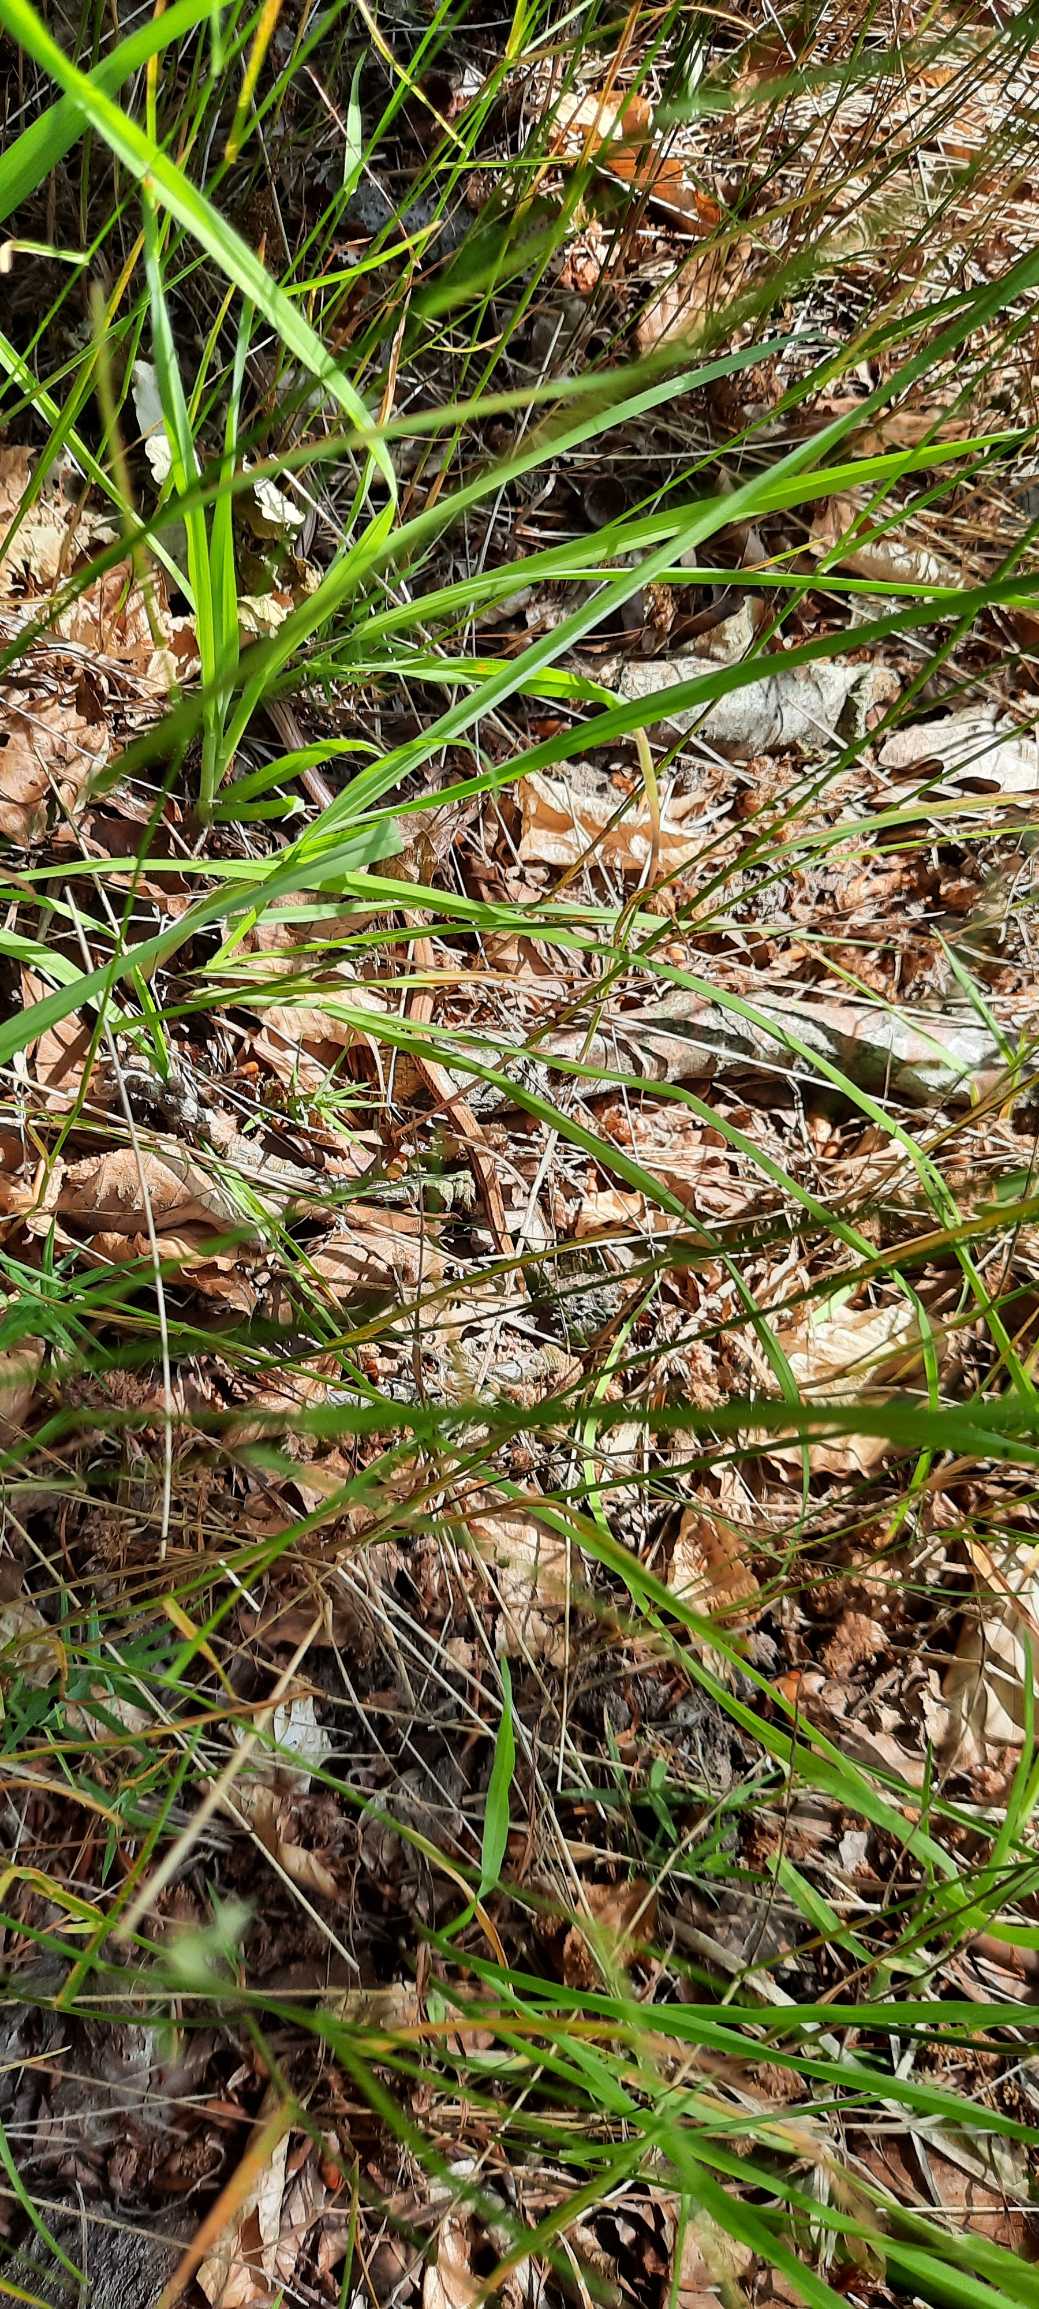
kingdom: Animalia
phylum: Chordata
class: Squamata
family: Anguidae
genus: Anguis
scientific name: Anguis fragilis
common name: Stålorm
